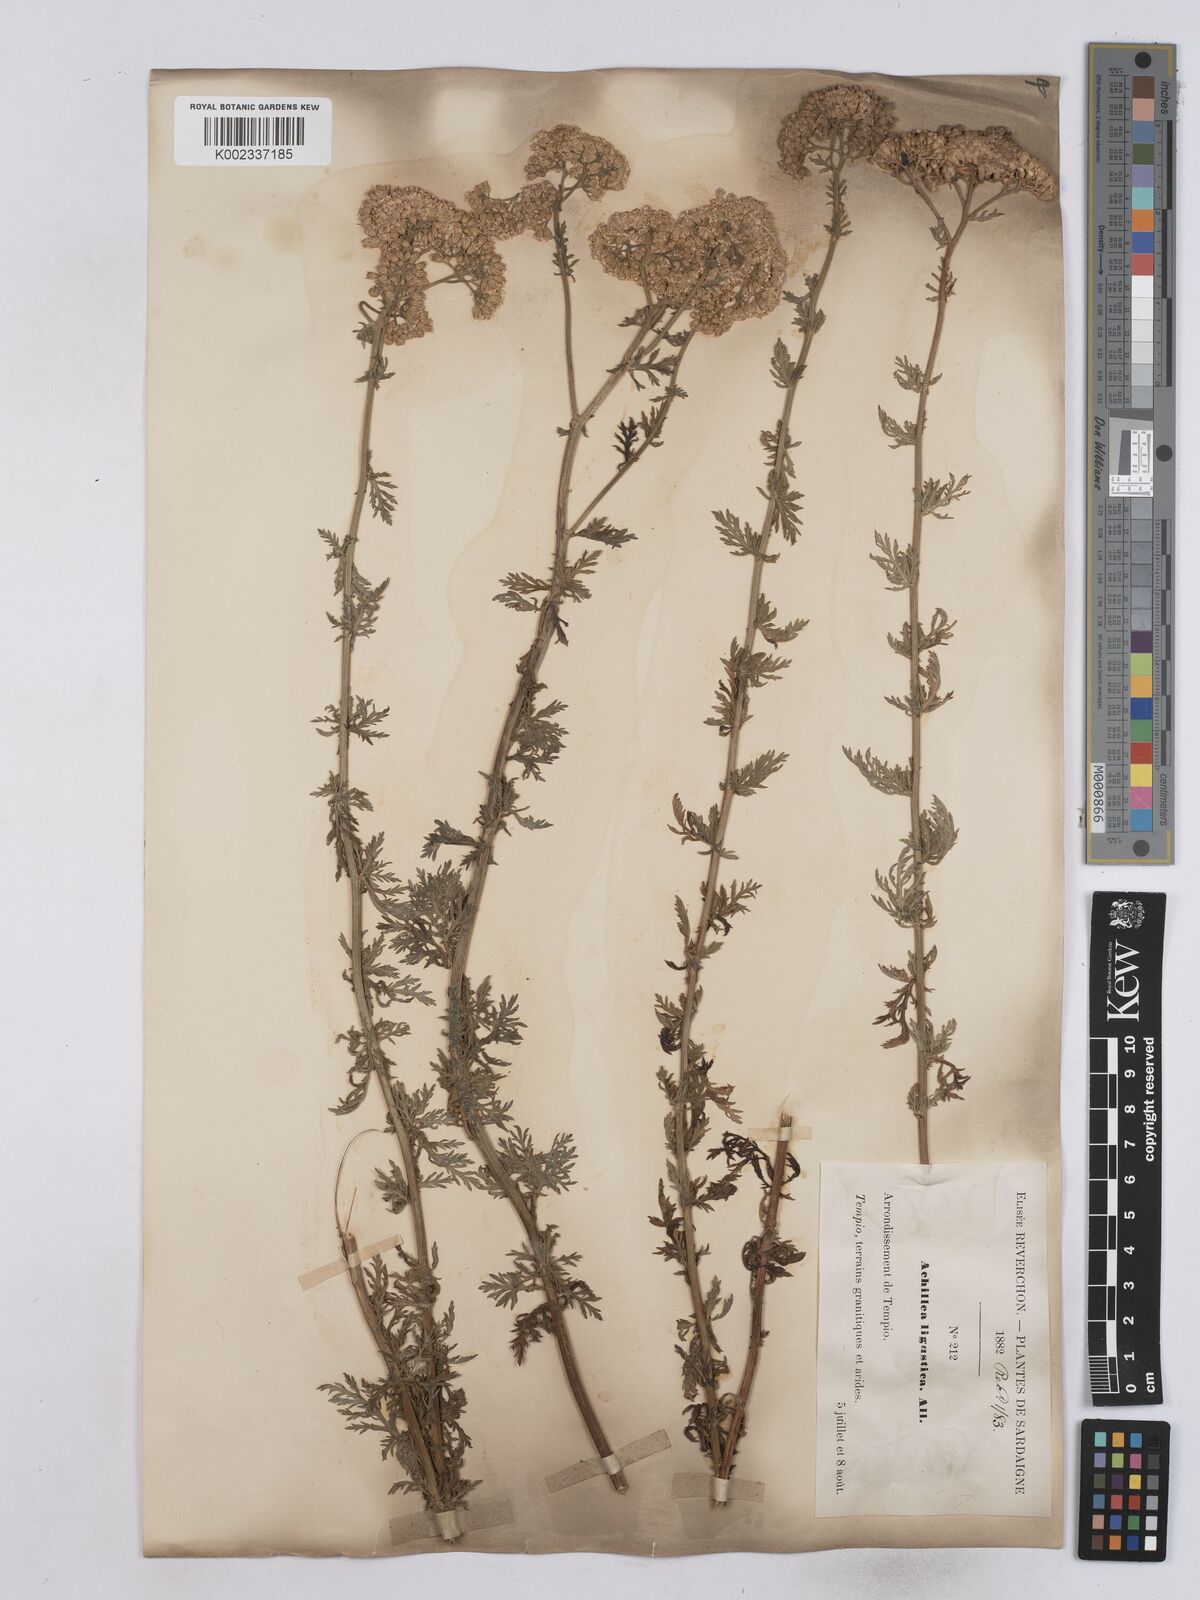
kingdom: Plantae
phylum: Tracheophyta
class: Magnoliopsida
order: Asterales
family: Asteraceae
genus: Achillea
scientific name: Achillea ligustica
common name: Southern yarrow
